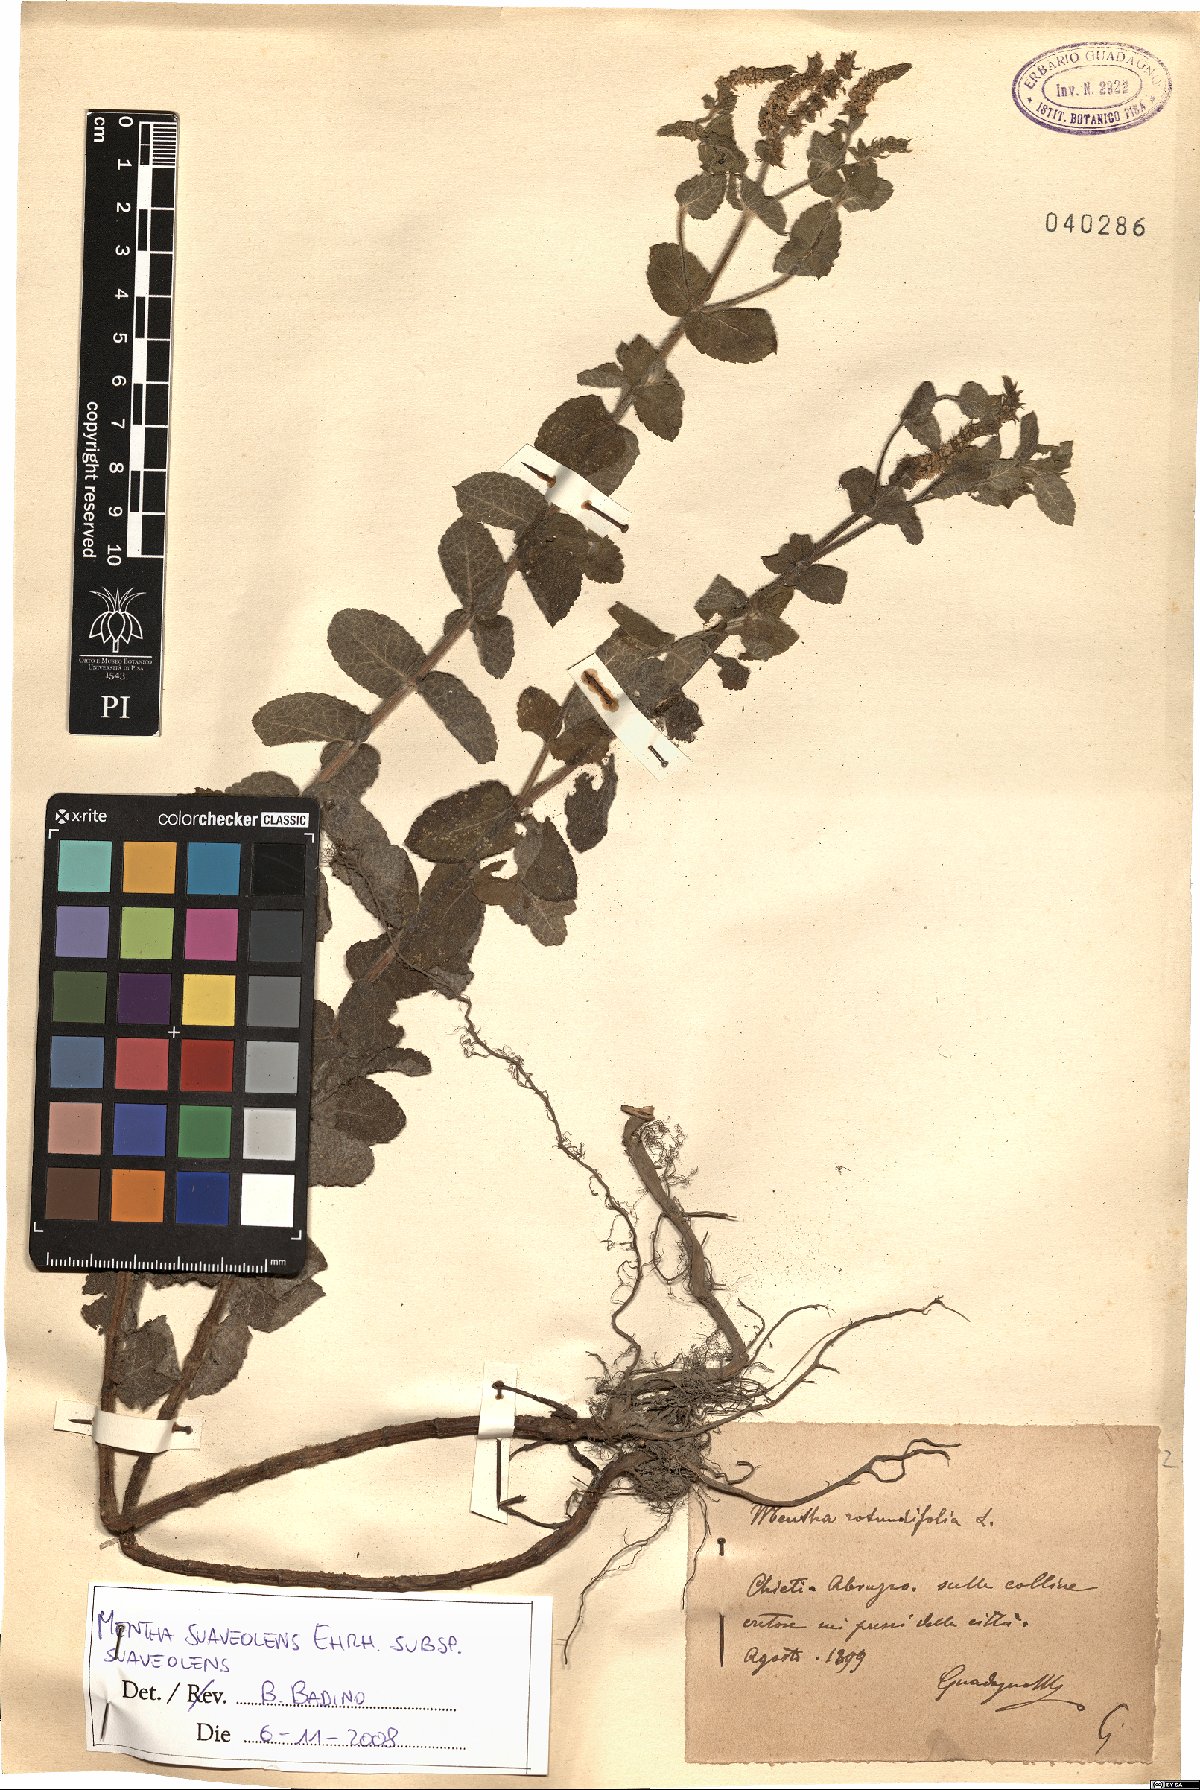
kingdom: Plantae
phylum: Tracheophyta
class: Magnoliopsida
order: Lamiales
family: Lamiaceae
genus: Mentha
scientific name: Mentha suaveolens
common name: Apple mint
